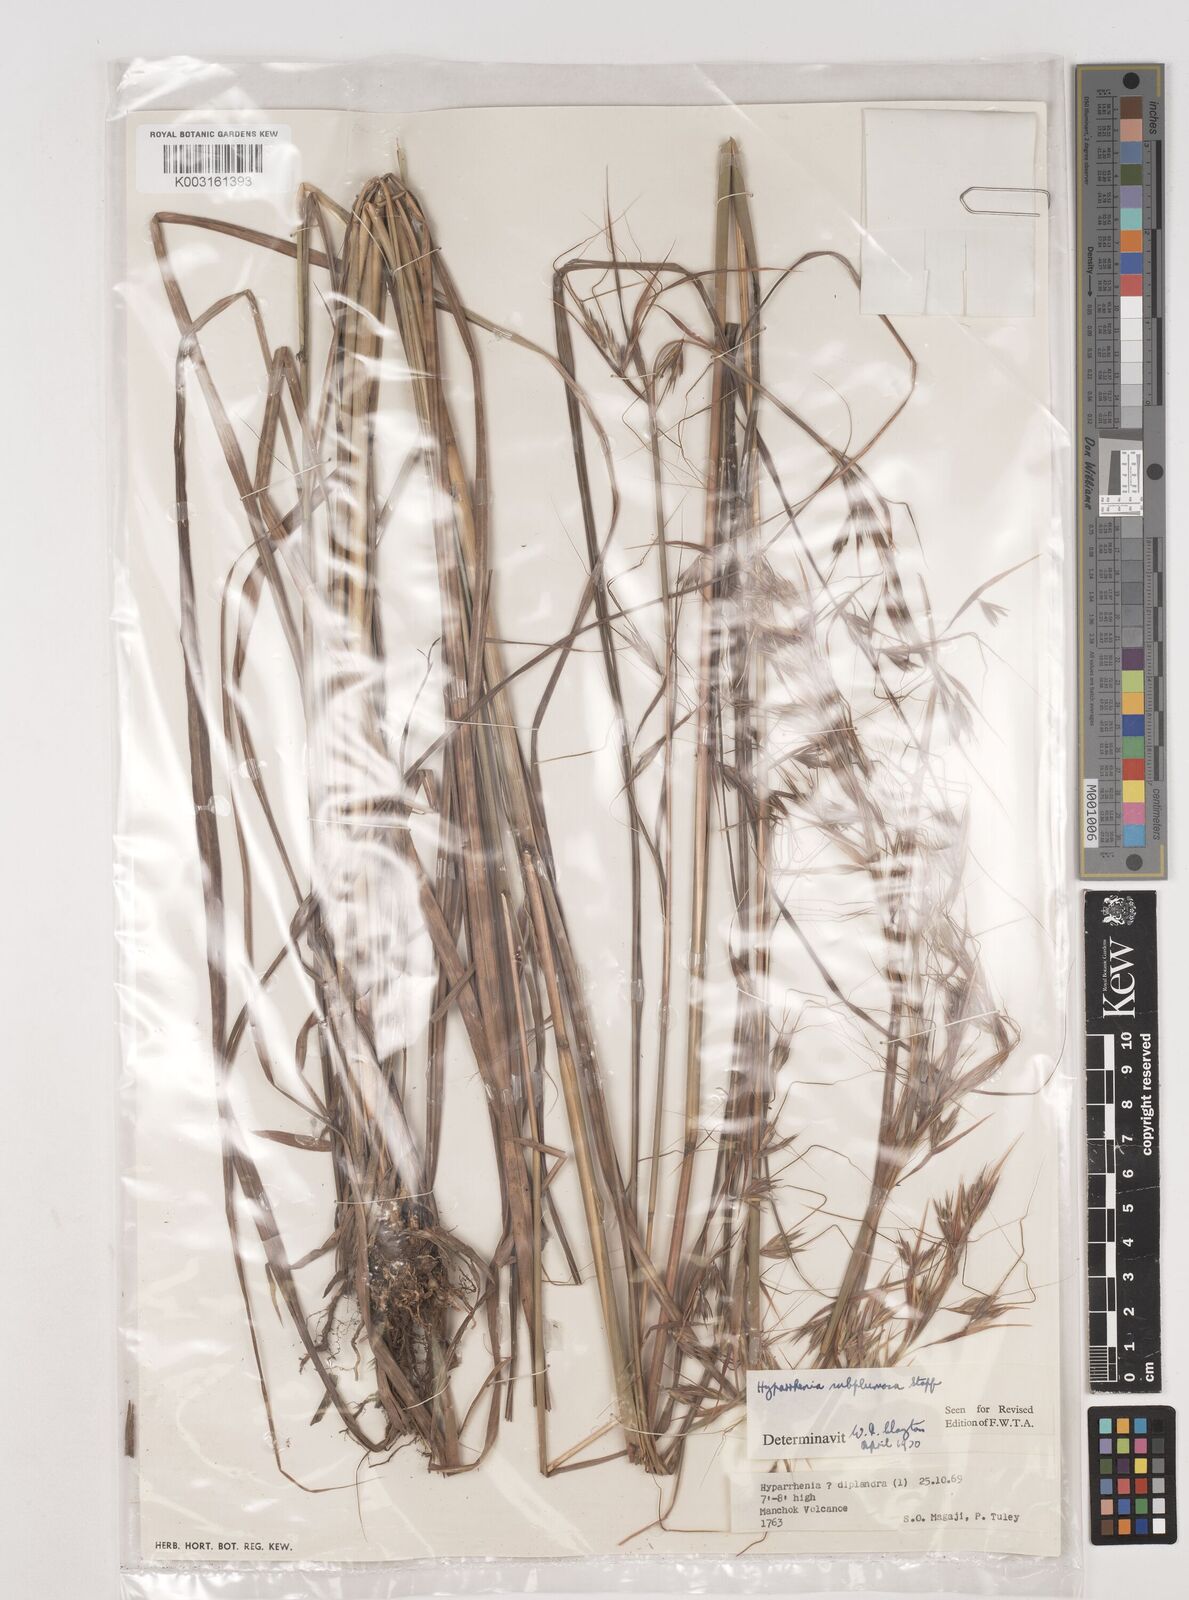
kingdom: Plantae
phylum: Tracheophyta
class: Liliopsida
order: Poales
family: Poaceae
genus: Hyparrhenia
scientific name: Hyparrhenia subplumosa
